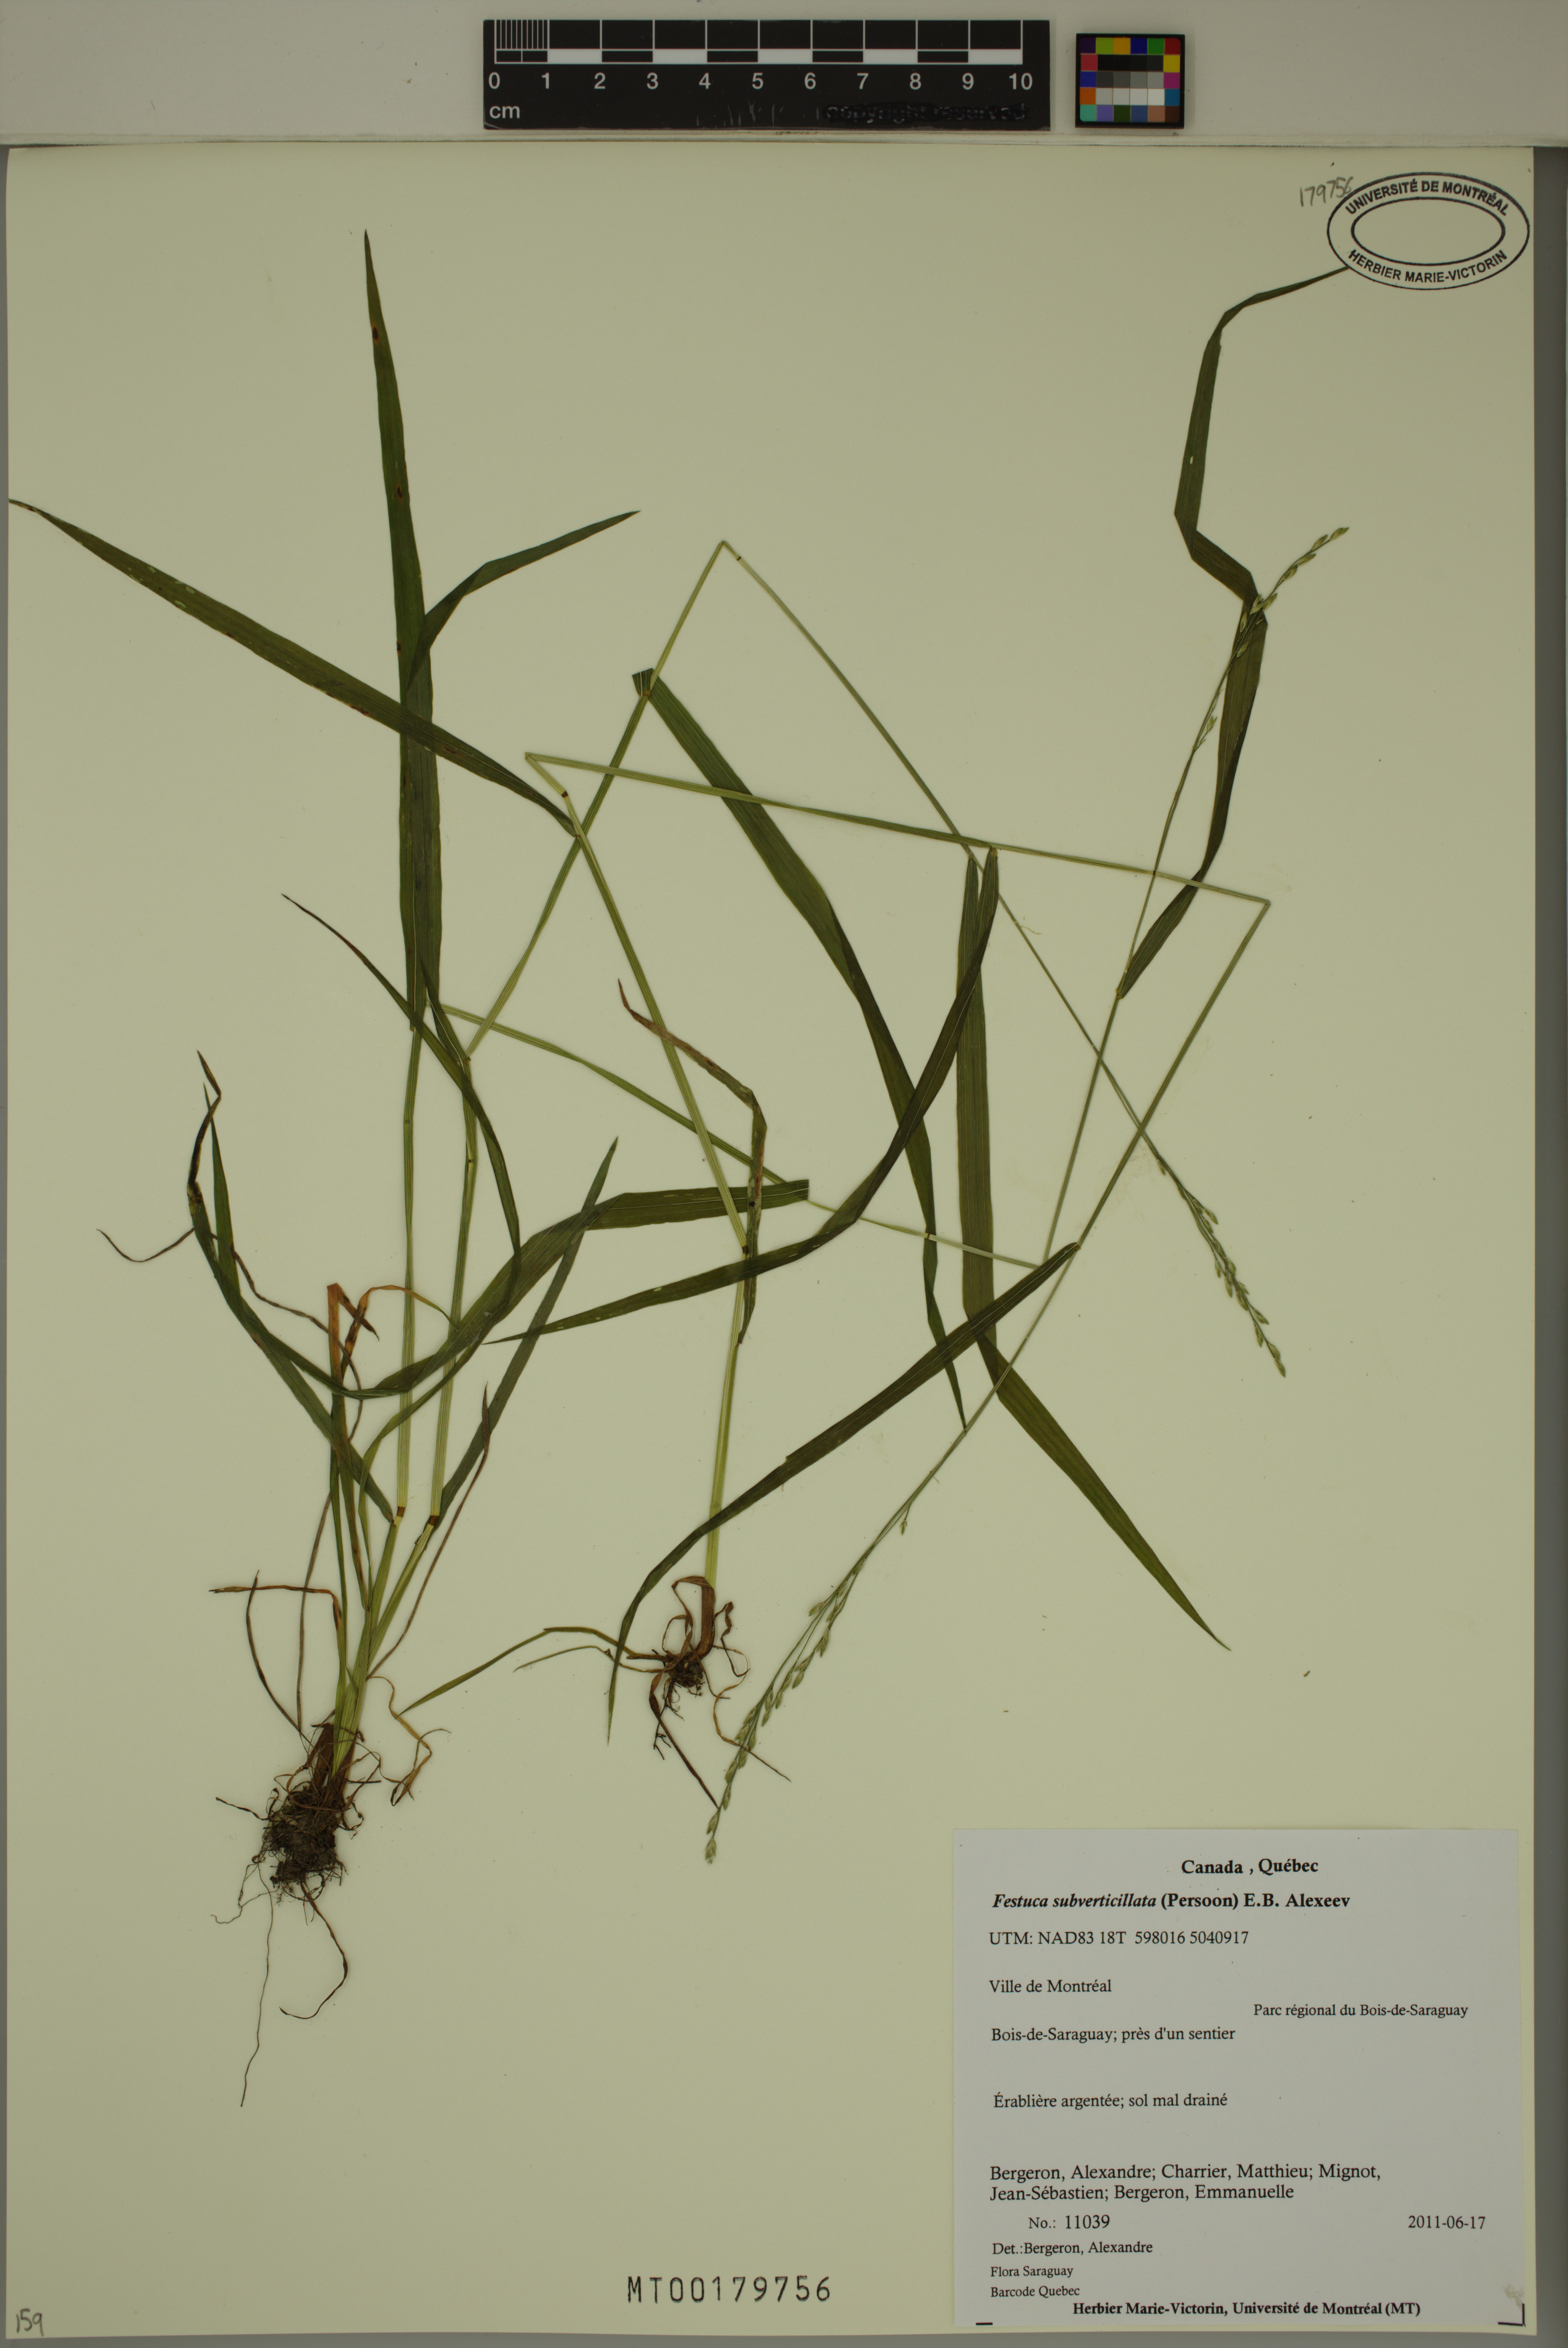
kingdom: Plantae
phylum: Tracheophyta
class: Liliopsida
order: Poales
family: Poaceae
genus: Festuca
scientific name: Festuca subverticillata
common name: Nodding fescue
